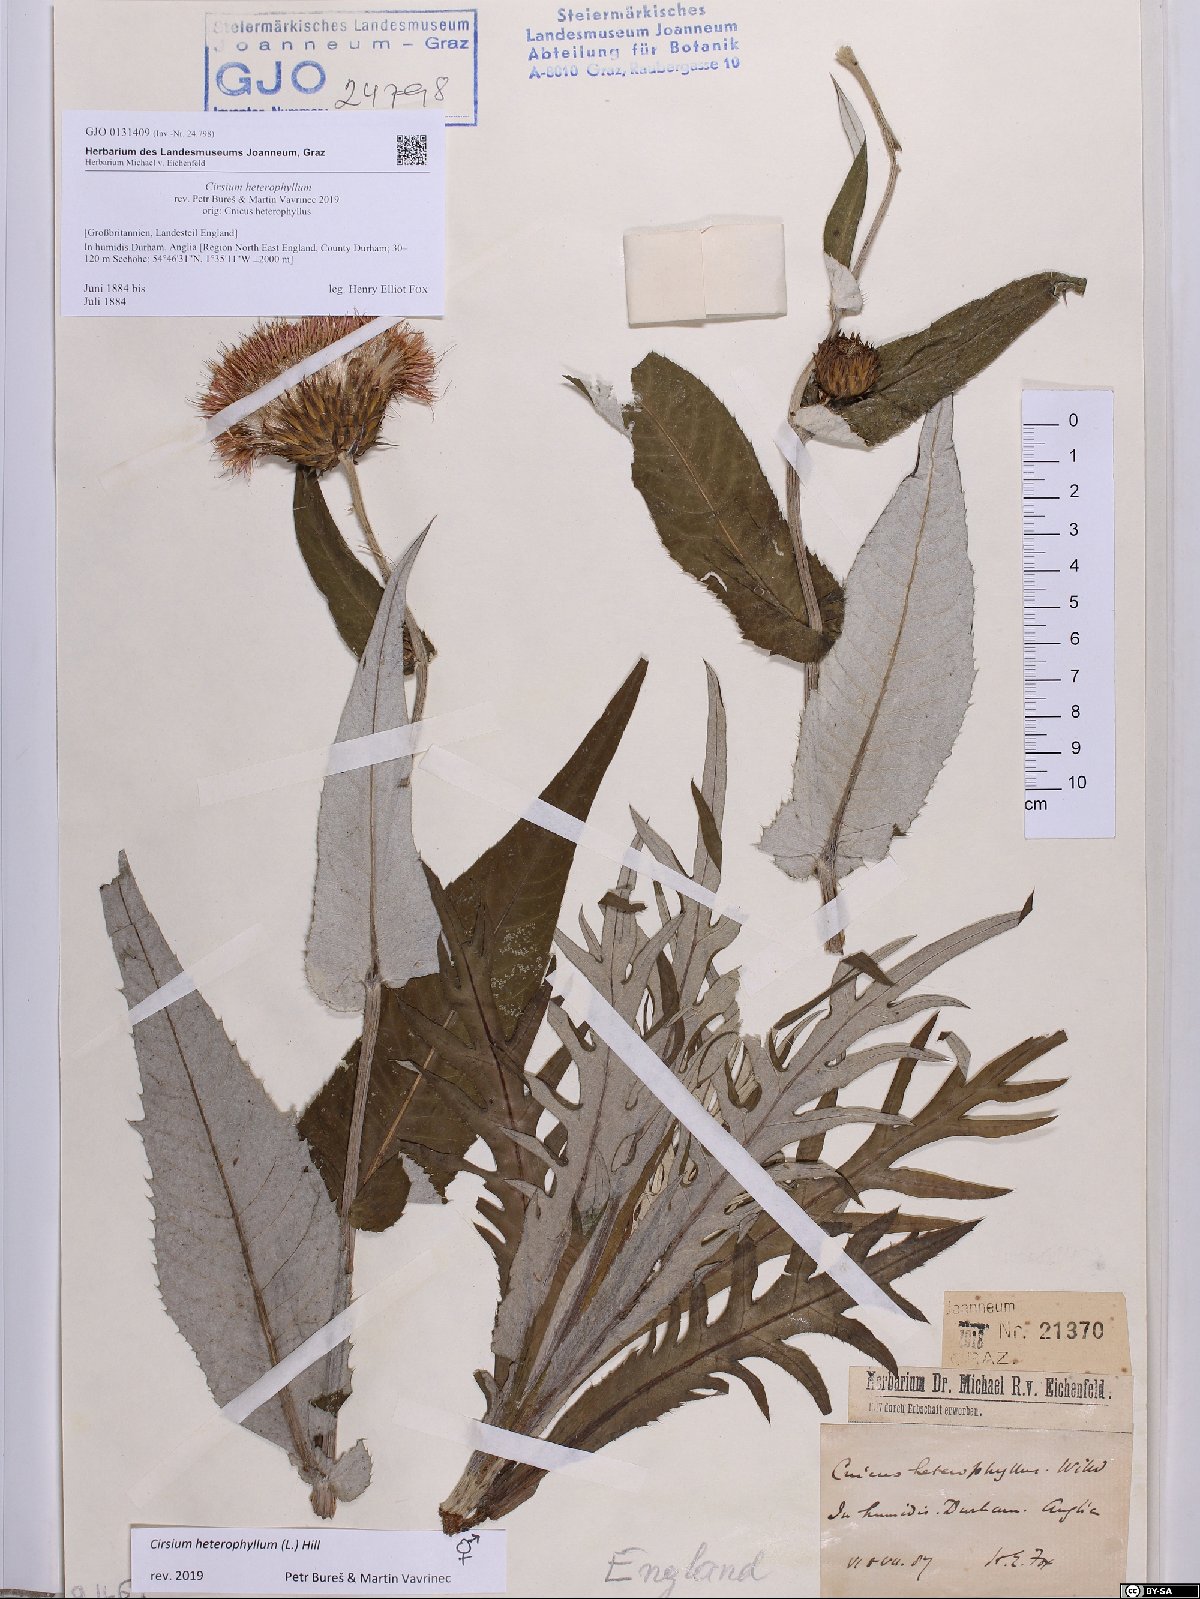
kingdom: Plantae
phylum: Tracheophyta
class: Magnoliopsida
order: Asterales
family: Asteraceae
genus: Cirsium
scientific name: Cirsium heterophyllum
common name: Melancholy thistle
